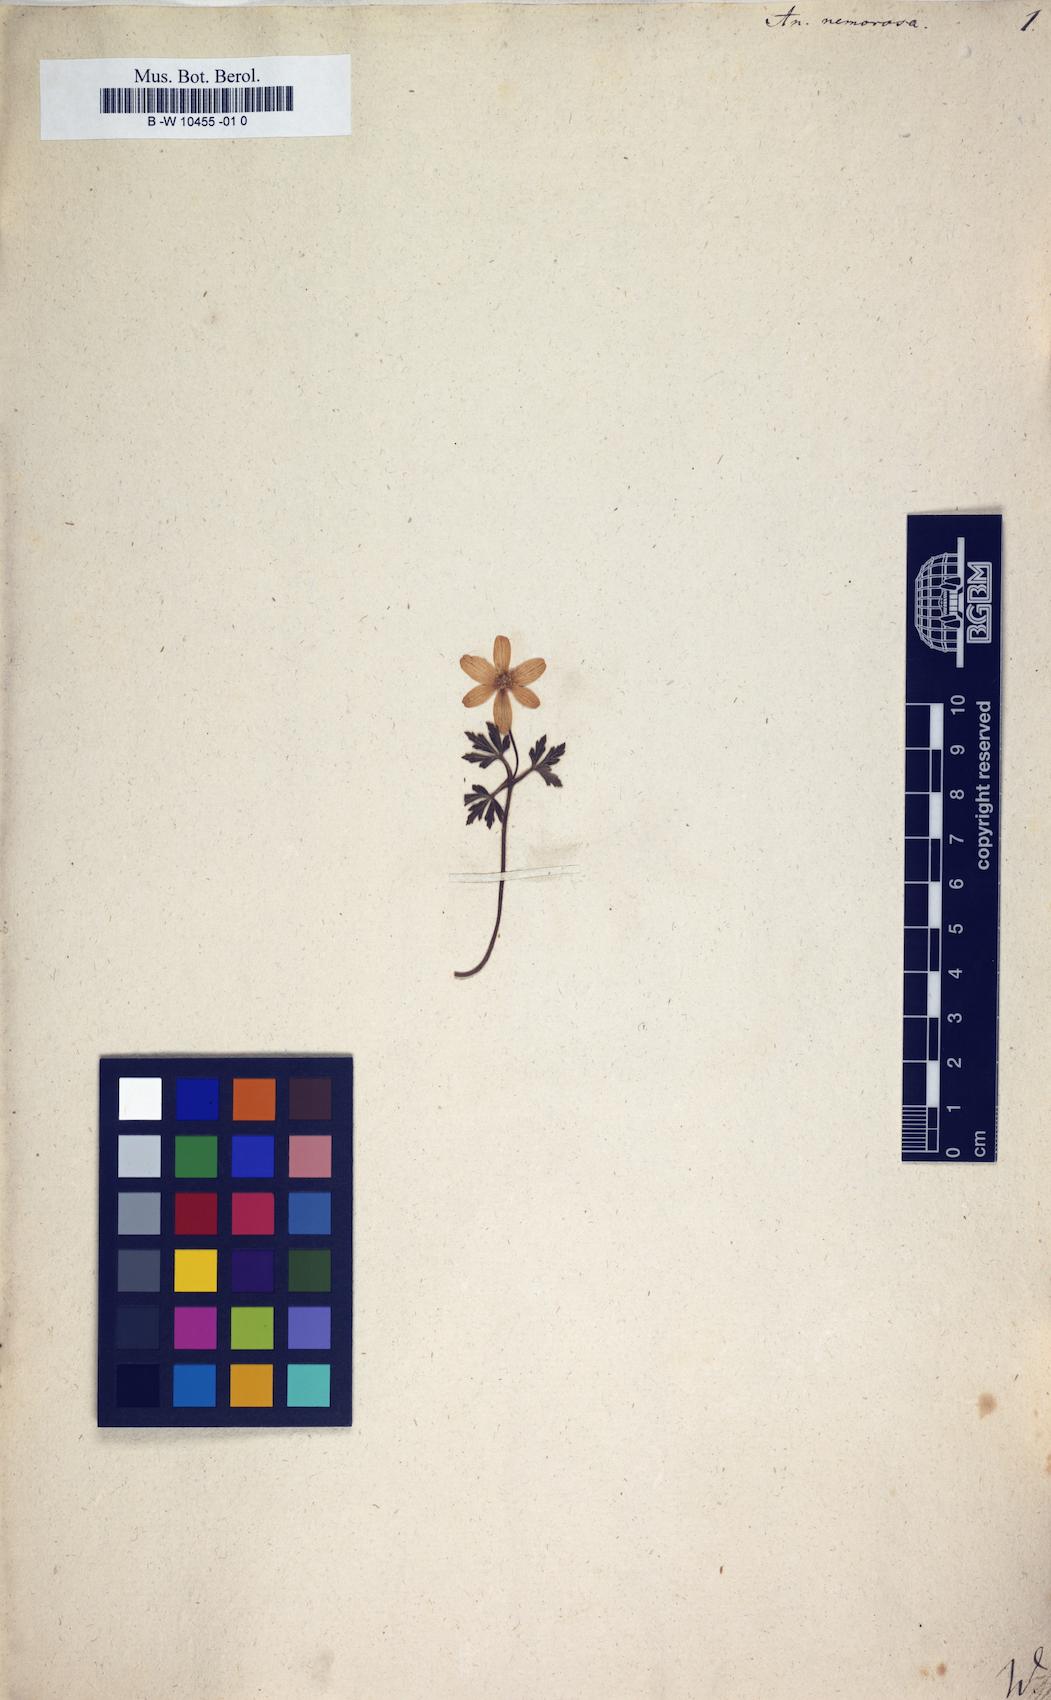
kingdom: Plantae
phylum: Tracheophyta
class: Magnoliopsida
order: Ranunculales
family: Ranunculaceae
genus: Anemone
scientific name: Anemone nemorosa
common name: Wood anemone
